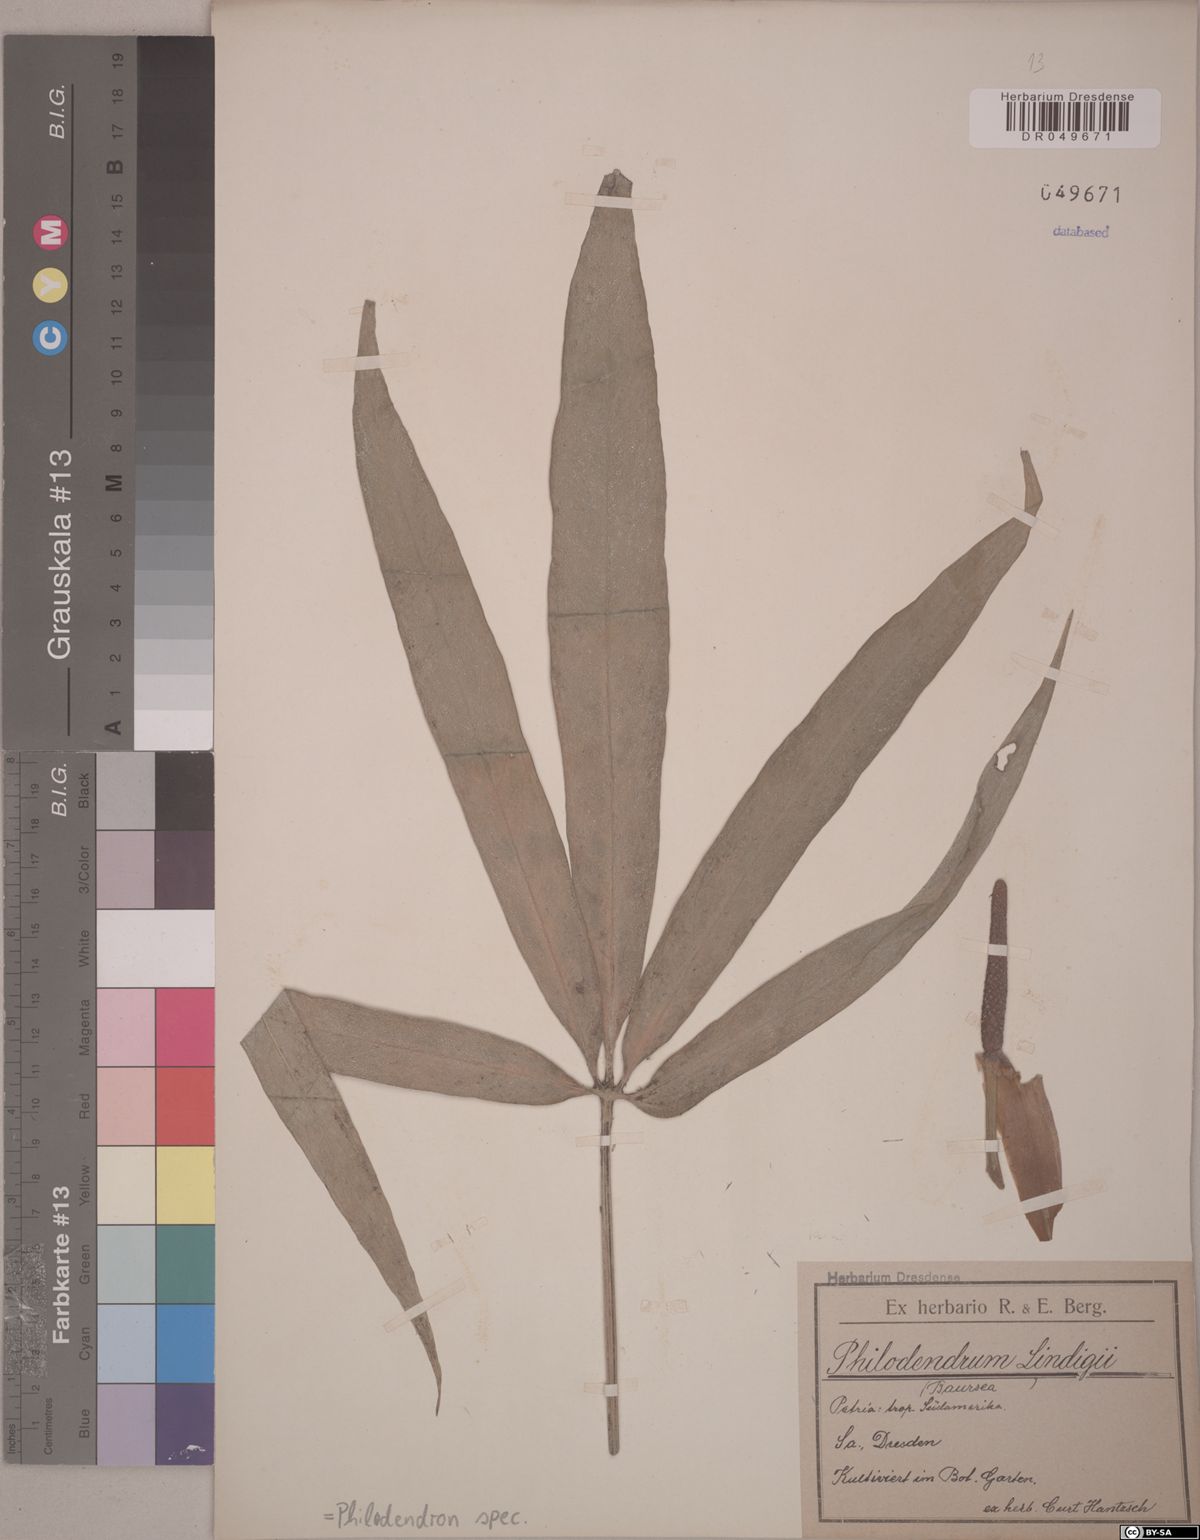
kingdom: Plantae
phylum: Tracheophyta
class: Liliopsida
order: Alismatales
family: Araceae
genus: Philodendron
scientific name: Philodendron
